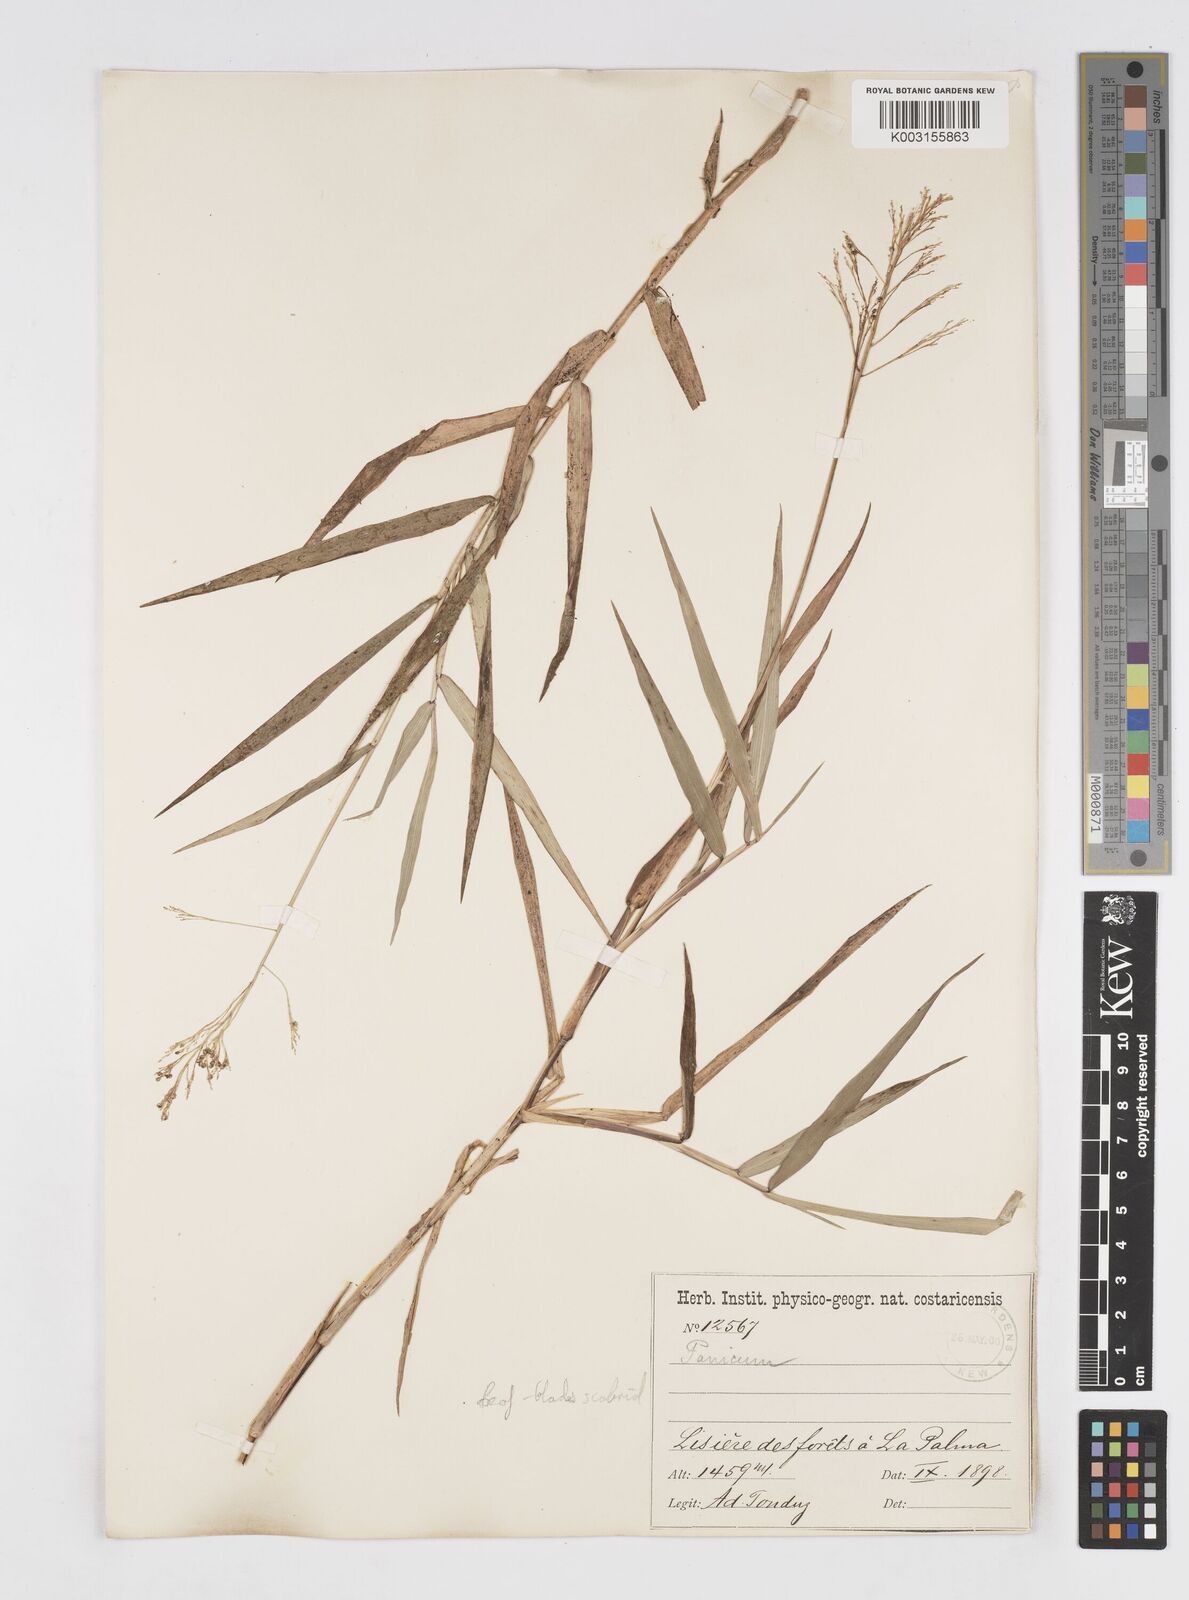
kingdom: Plantae
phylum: Tracheophyta
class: Liliopsida
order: Poales
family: Poaceae
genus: Isachne
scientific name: Isachne arundinacea
